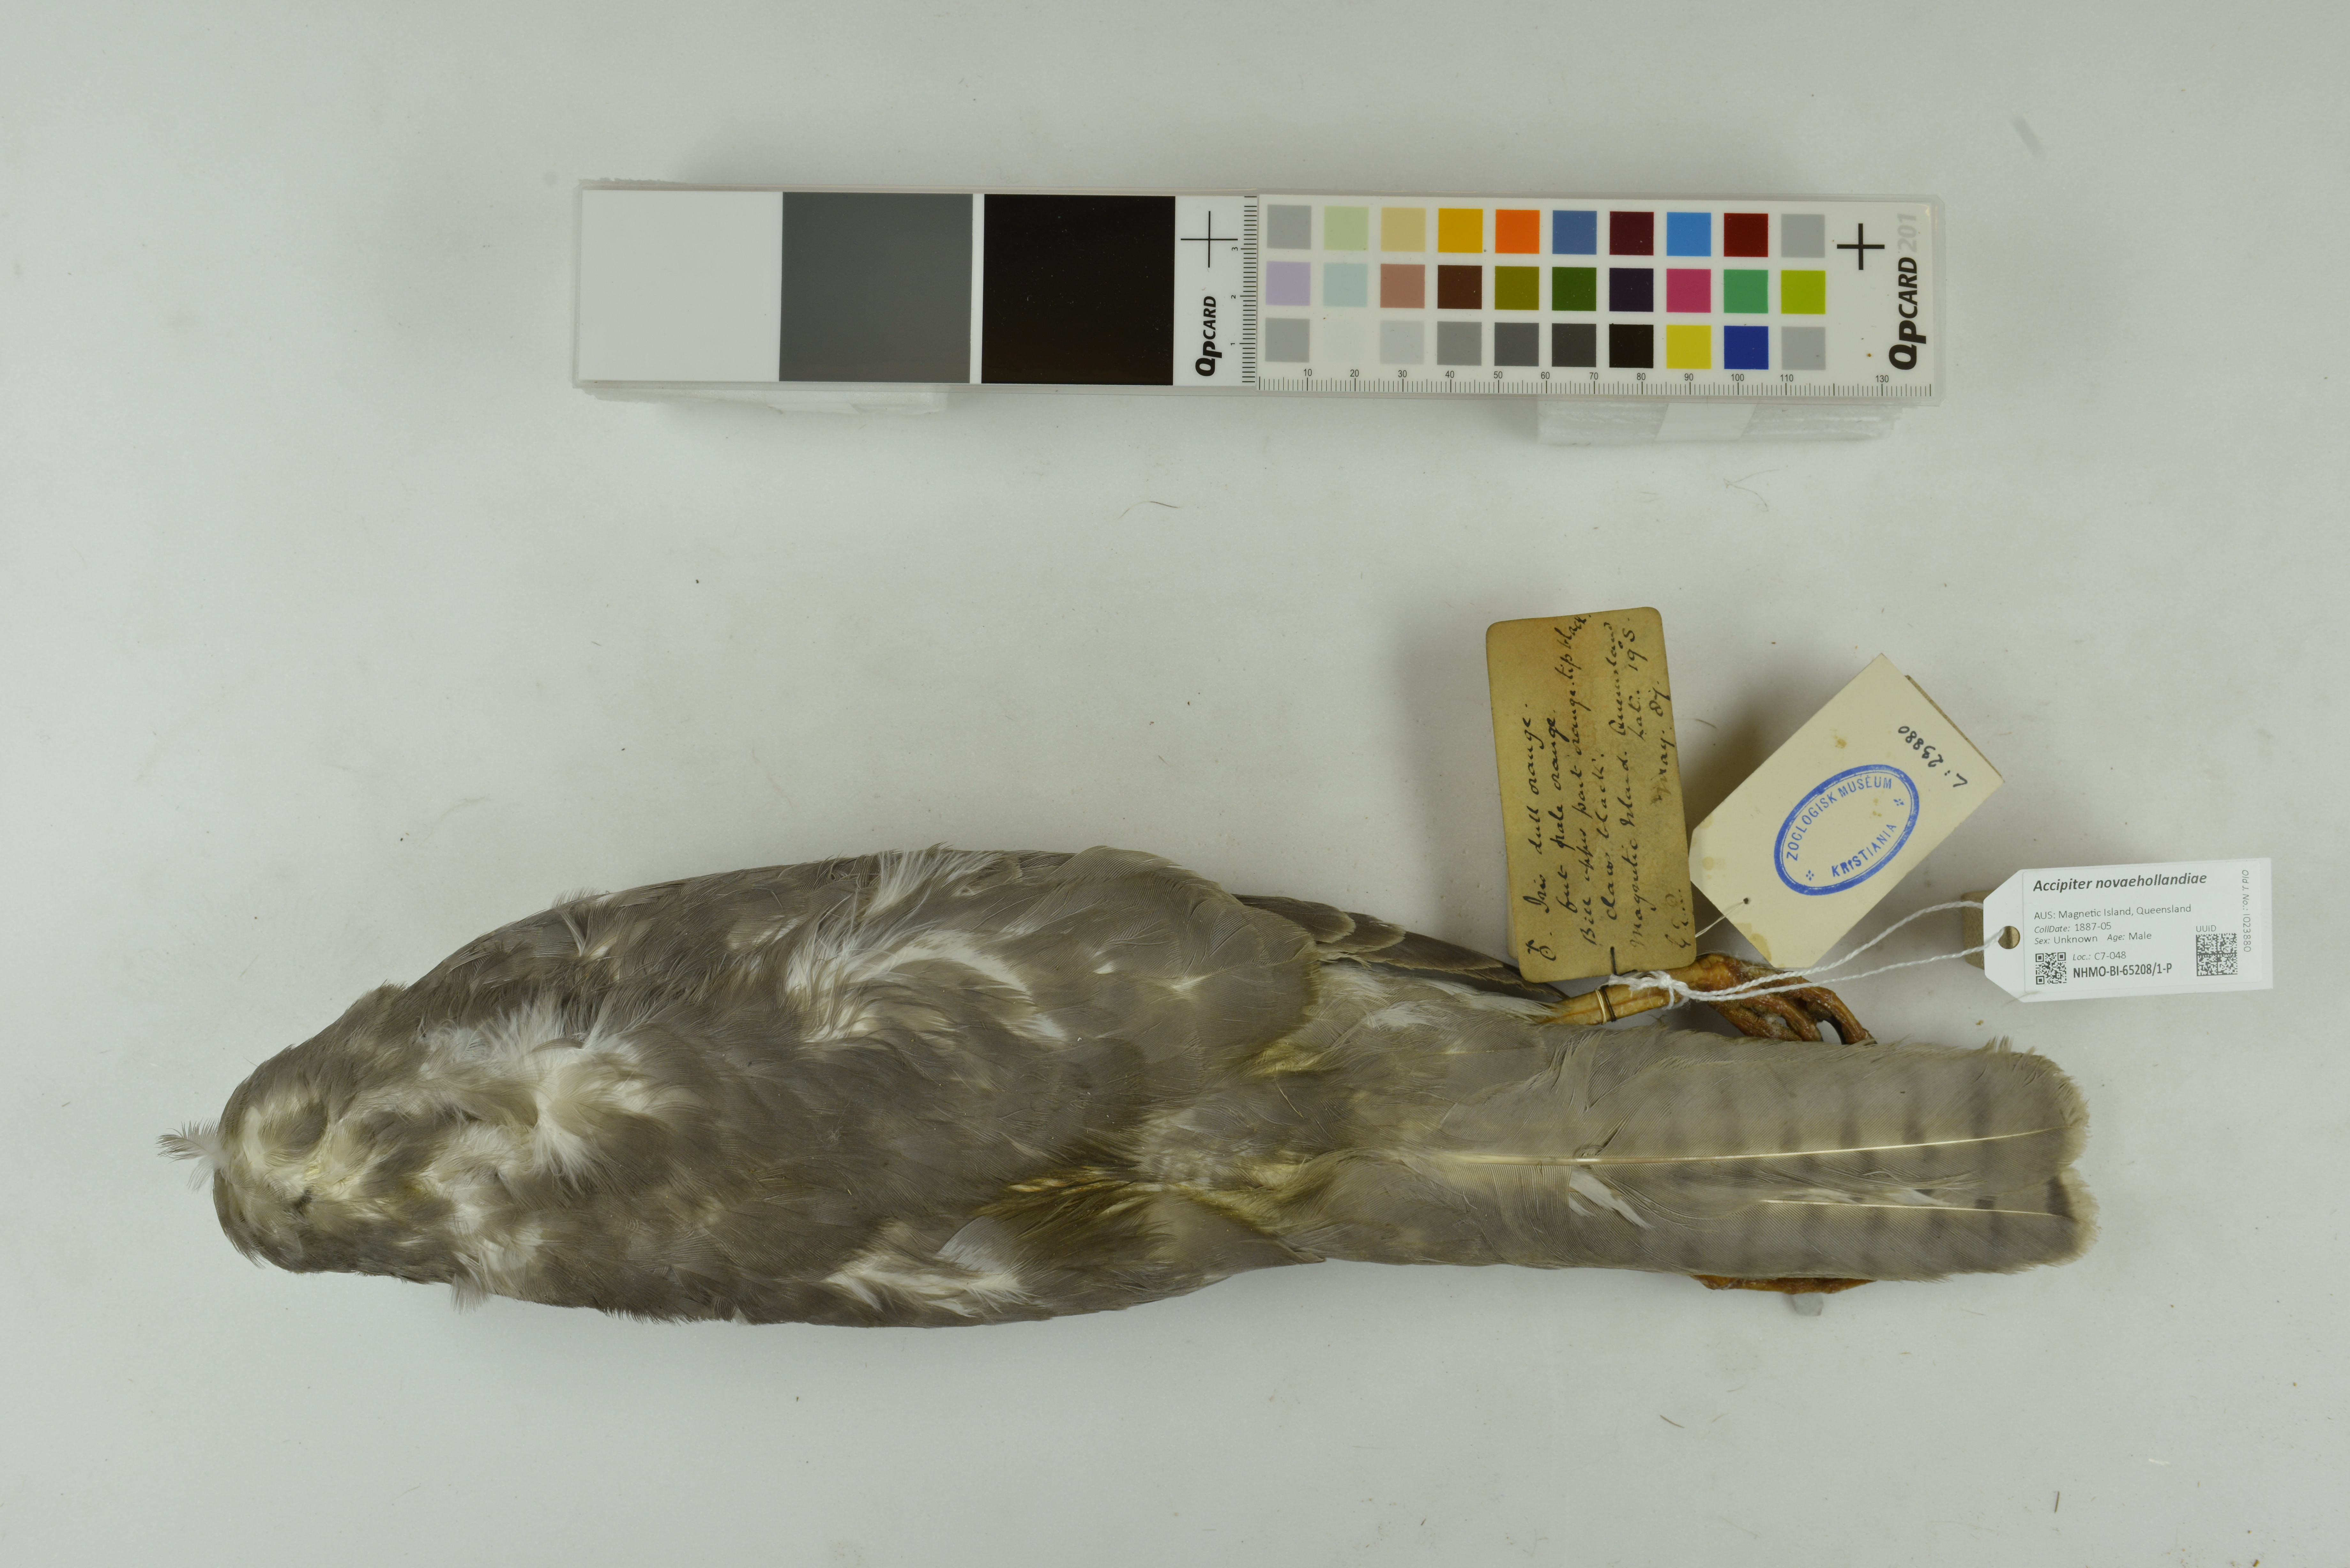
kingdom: Animalia
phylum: Chordata
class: Aves
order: Accipitriformes
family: Accipitridae
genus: Accipiter
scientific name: Accipiter novaehollandiae
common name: Grey goshawk
